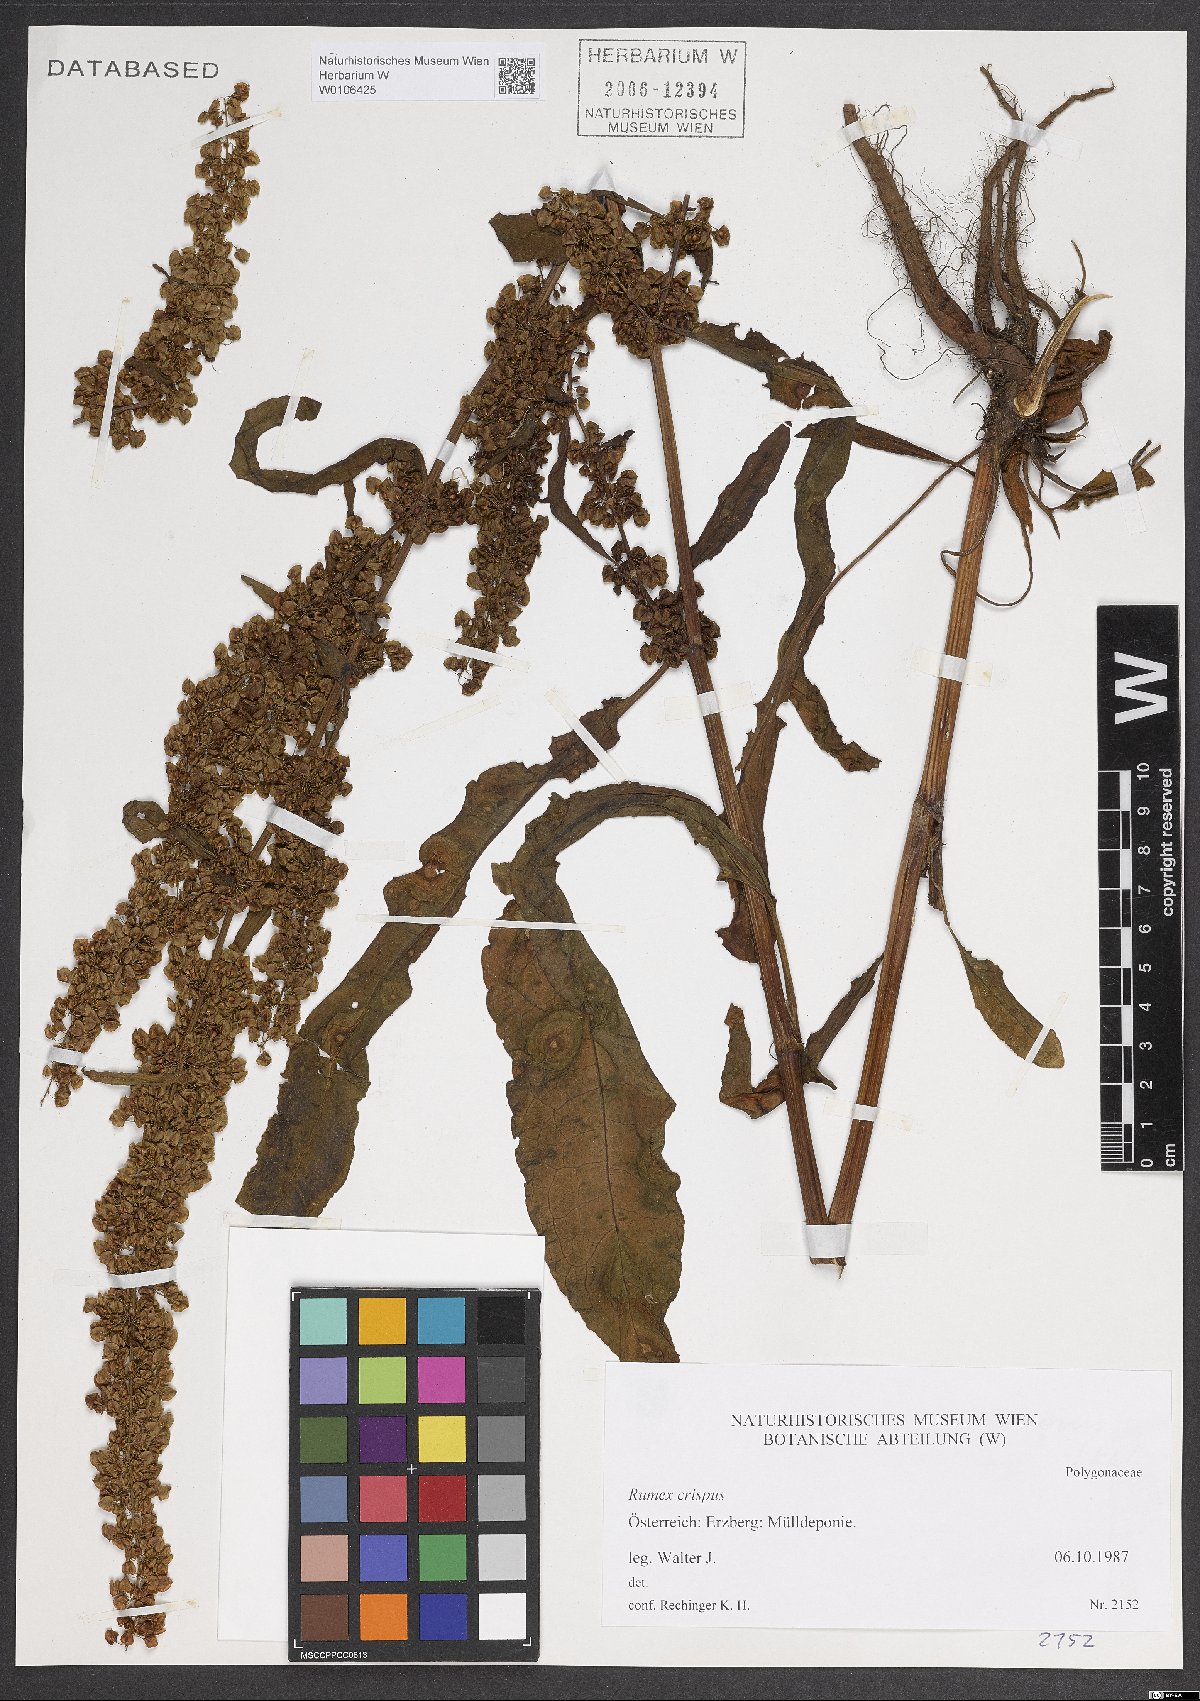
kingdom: Plantae
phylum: Tracheophyta
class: Magnoliopsida
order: Caryophyllales
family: Polygonaceae
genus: Rumex
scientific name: Rumex crispus
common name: Curled dock
